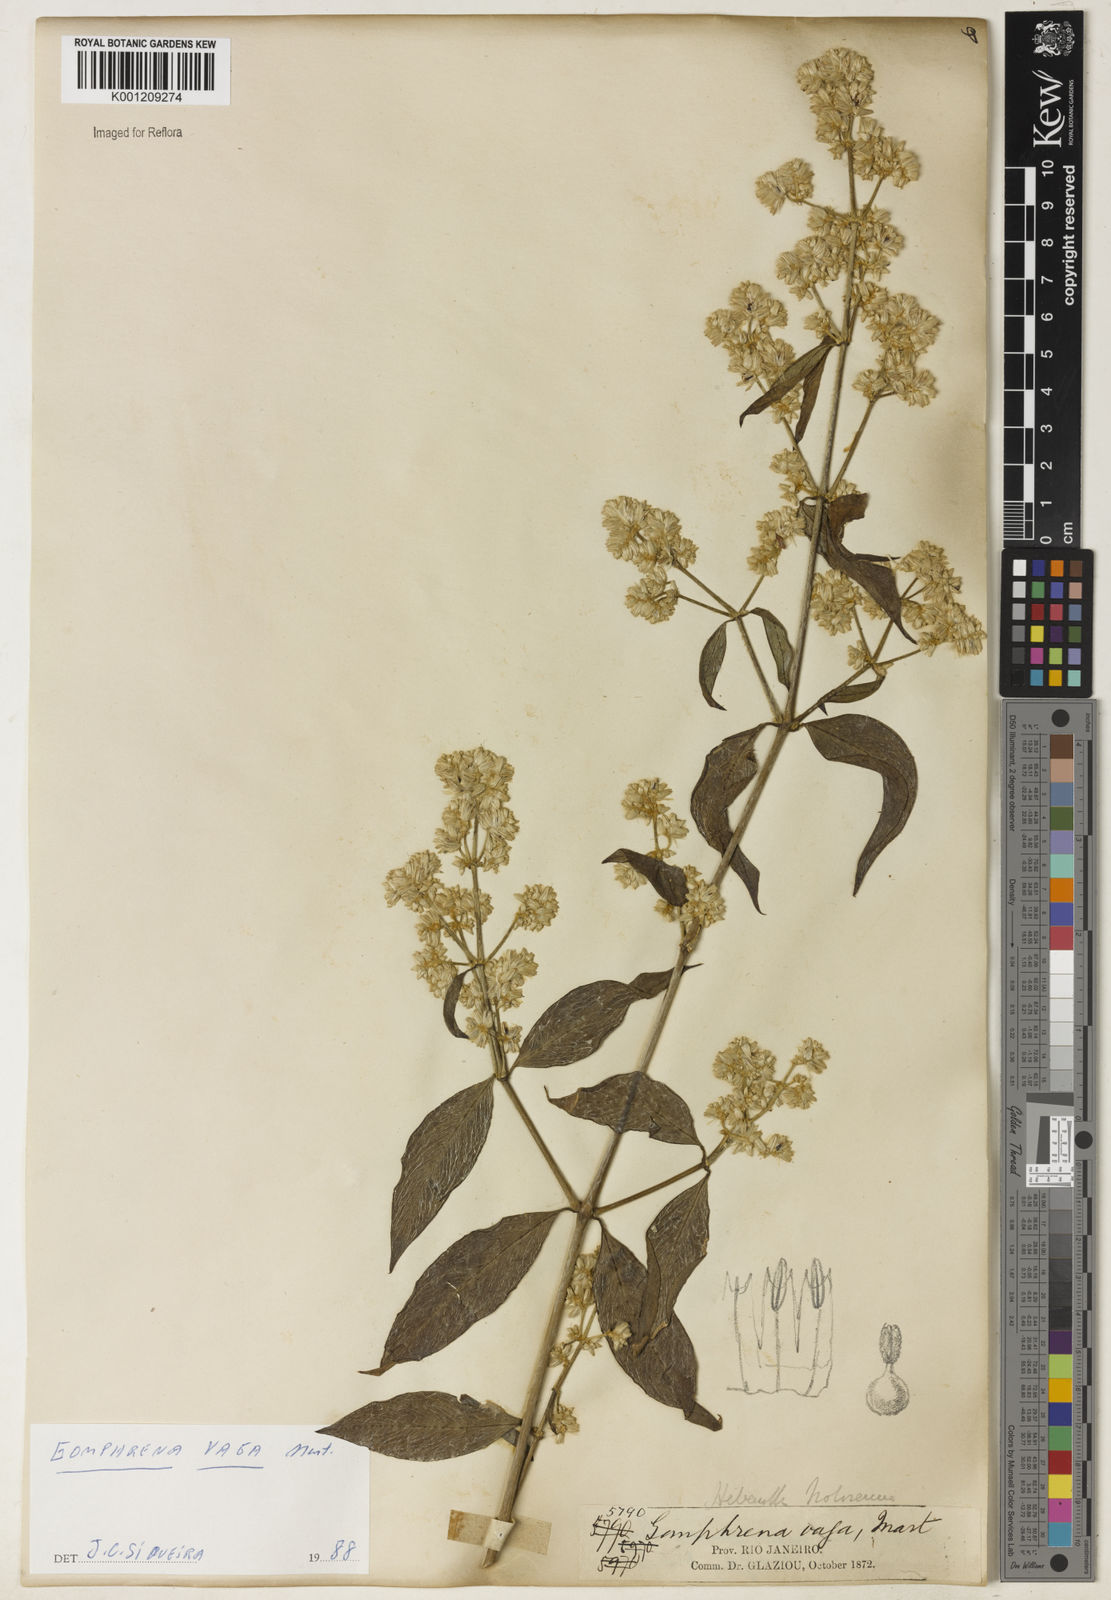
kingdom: Plantae
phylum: Tracheophyta
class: Magnoliopsida
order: Caryophyllales
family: Amaranthaceae
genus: Gomphrena
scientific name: Gomphrena vaga
